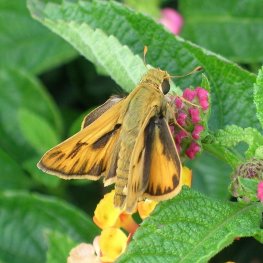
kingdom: Animalia
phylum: Arthropoda
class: Insecta
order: Lepidoptera
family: Hesperiidae
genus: Hylephila
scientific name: Hylephila phyleus
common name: Fiery Skipper
